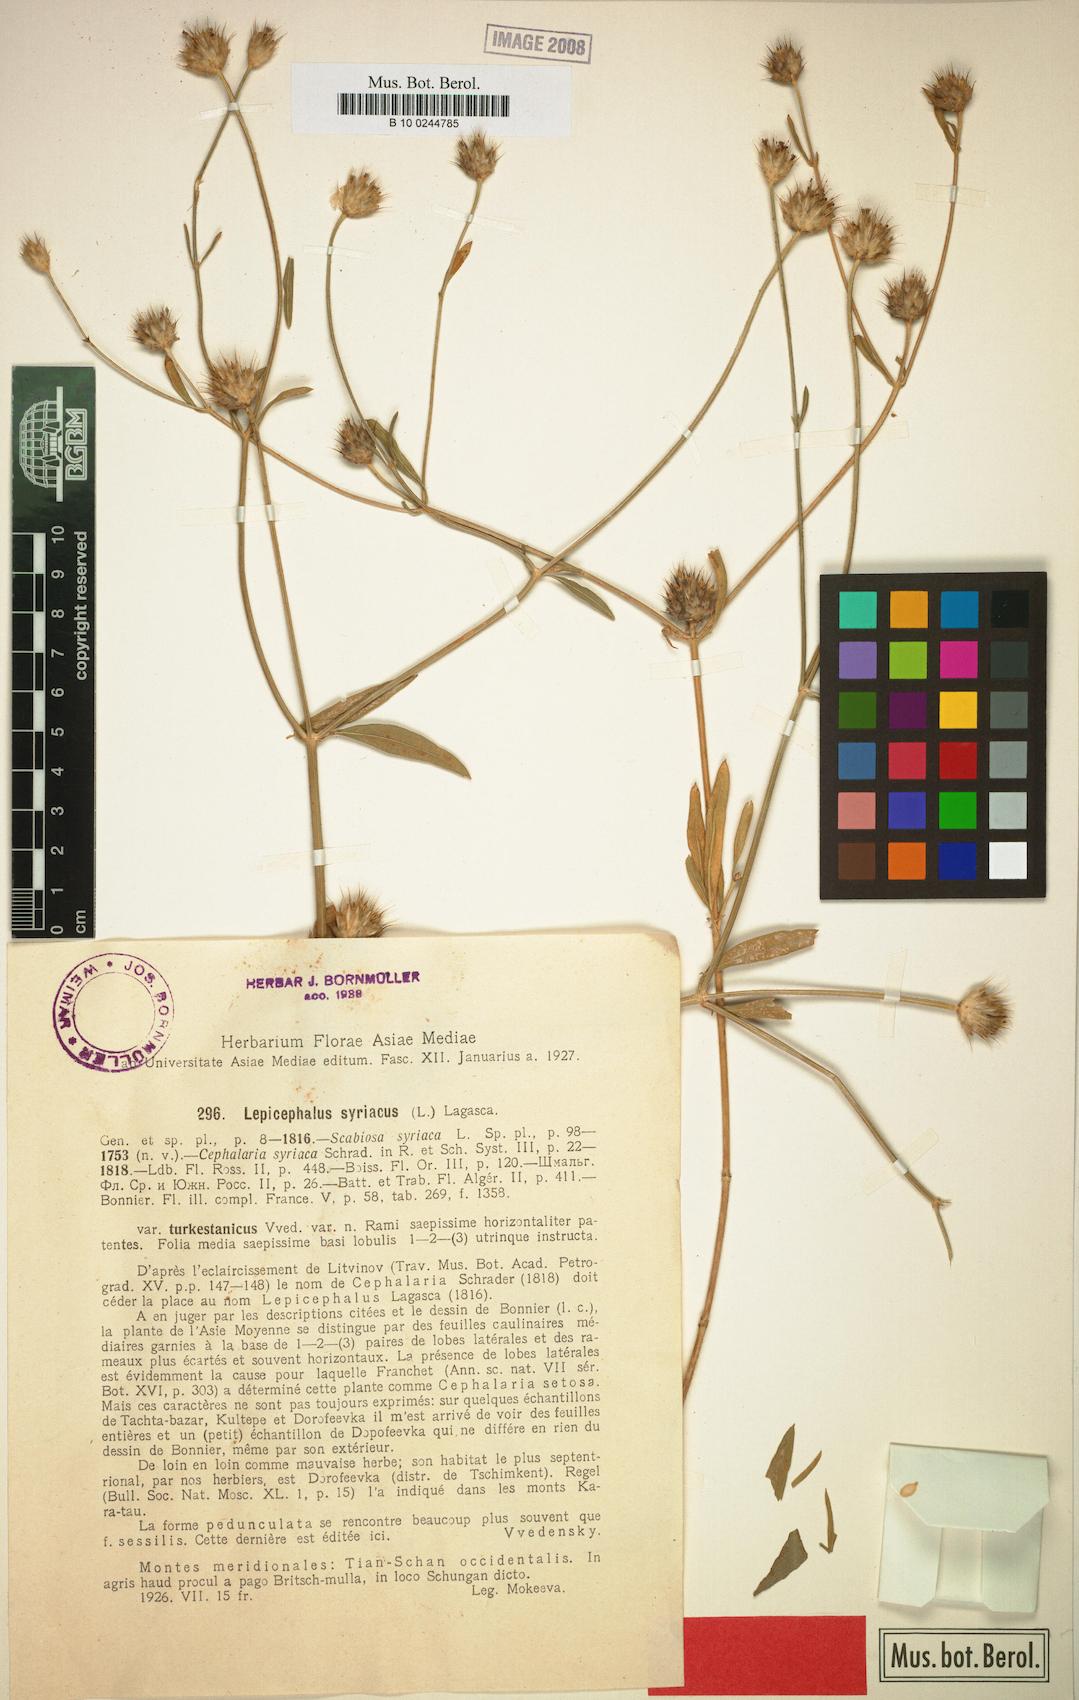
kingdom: Plantae
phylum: Tracheophyta
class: Magnoliopsida
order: Dipsacales
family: Caprifoliaceae
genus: Cephalaria
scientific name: Cephalaria syriaca
